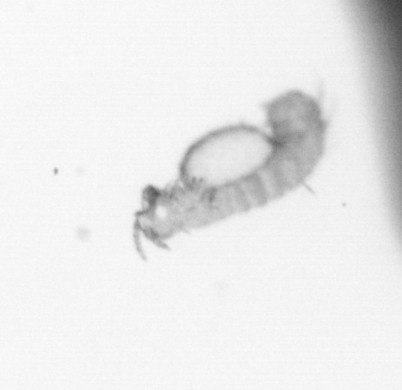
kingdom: Animalia
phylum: Annelida
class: Polychaeta
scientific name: Polychaeta
